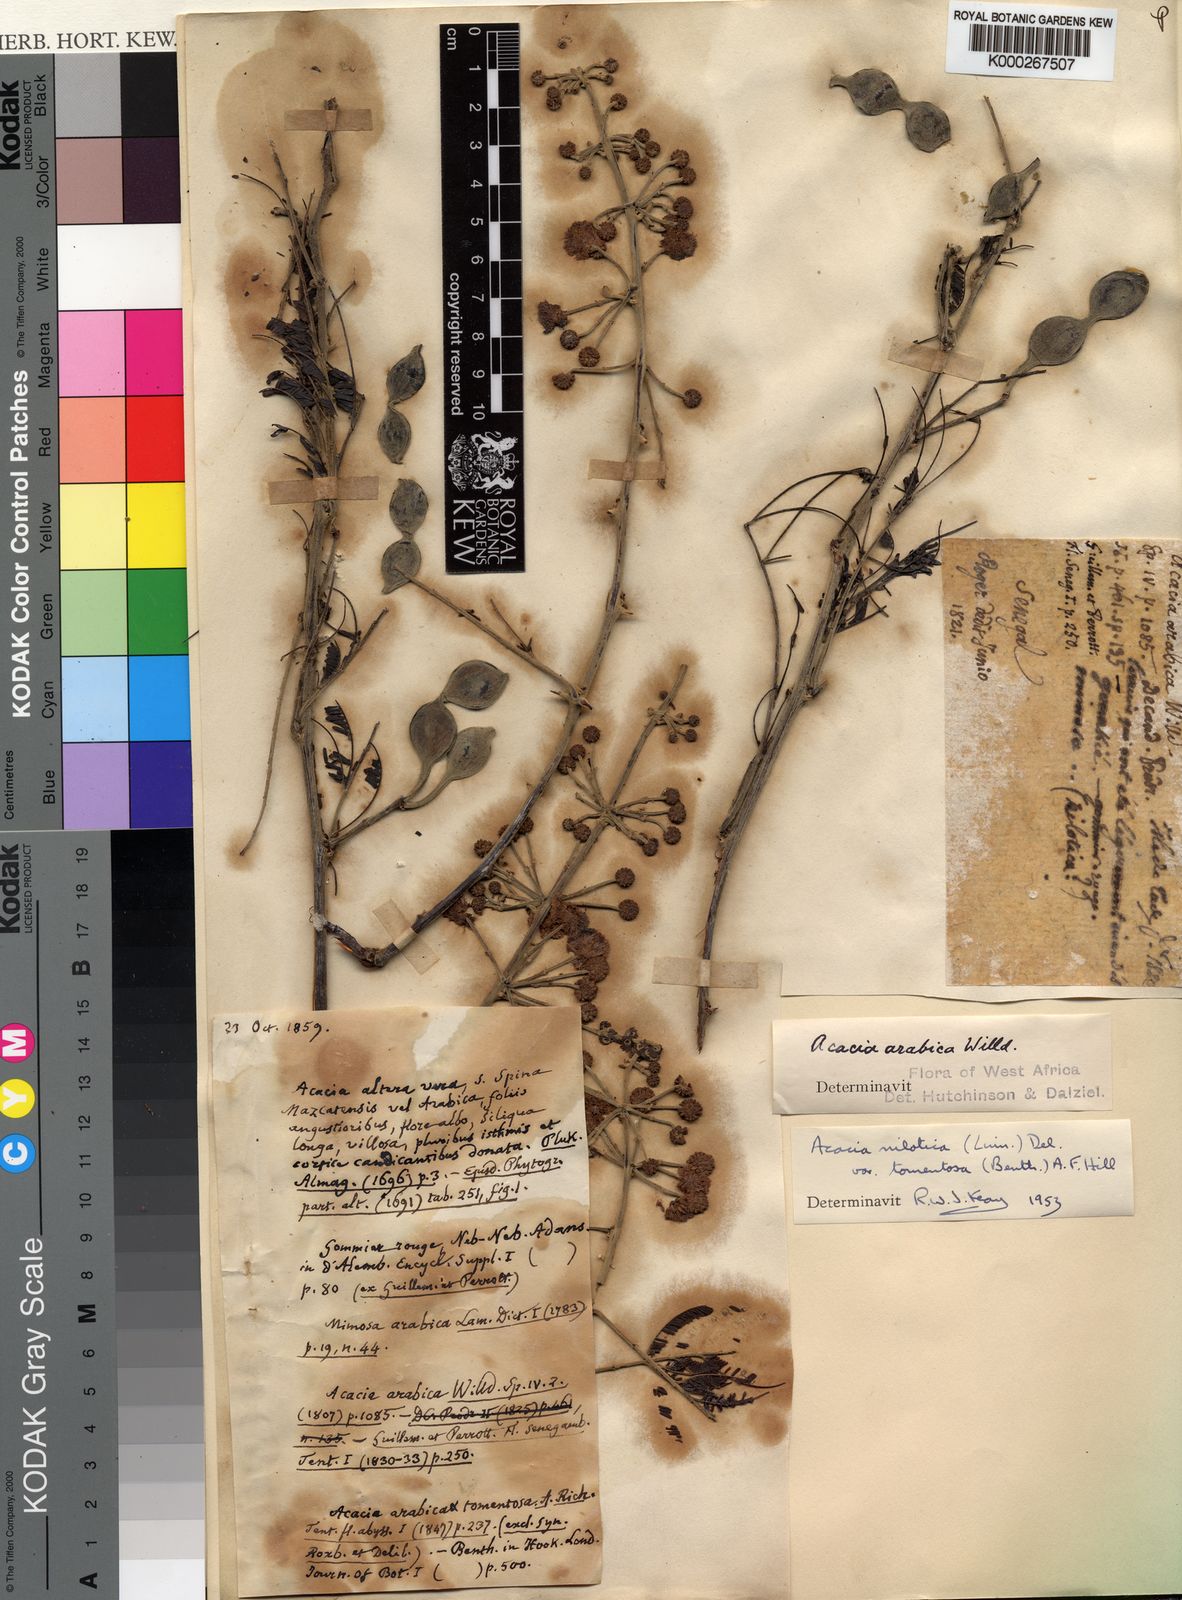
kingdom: Plantae
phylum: Tracheophyta
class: Magnoliopsida
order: Fabales
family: Fabaceae
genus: Vachellia
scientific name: Vachellia nilotica
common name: Arabic gumtree
